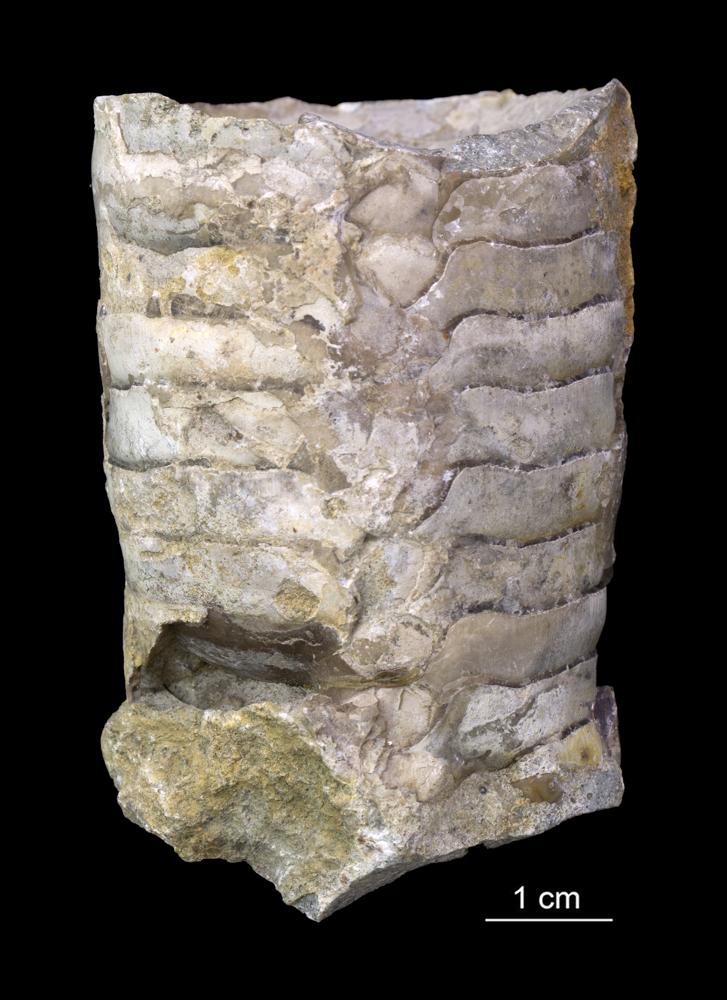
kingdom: Animalia
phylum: Mollusca
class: Cephalopoda
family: Estonioceratidae
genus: Estonioceras
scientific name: Estonioceras
